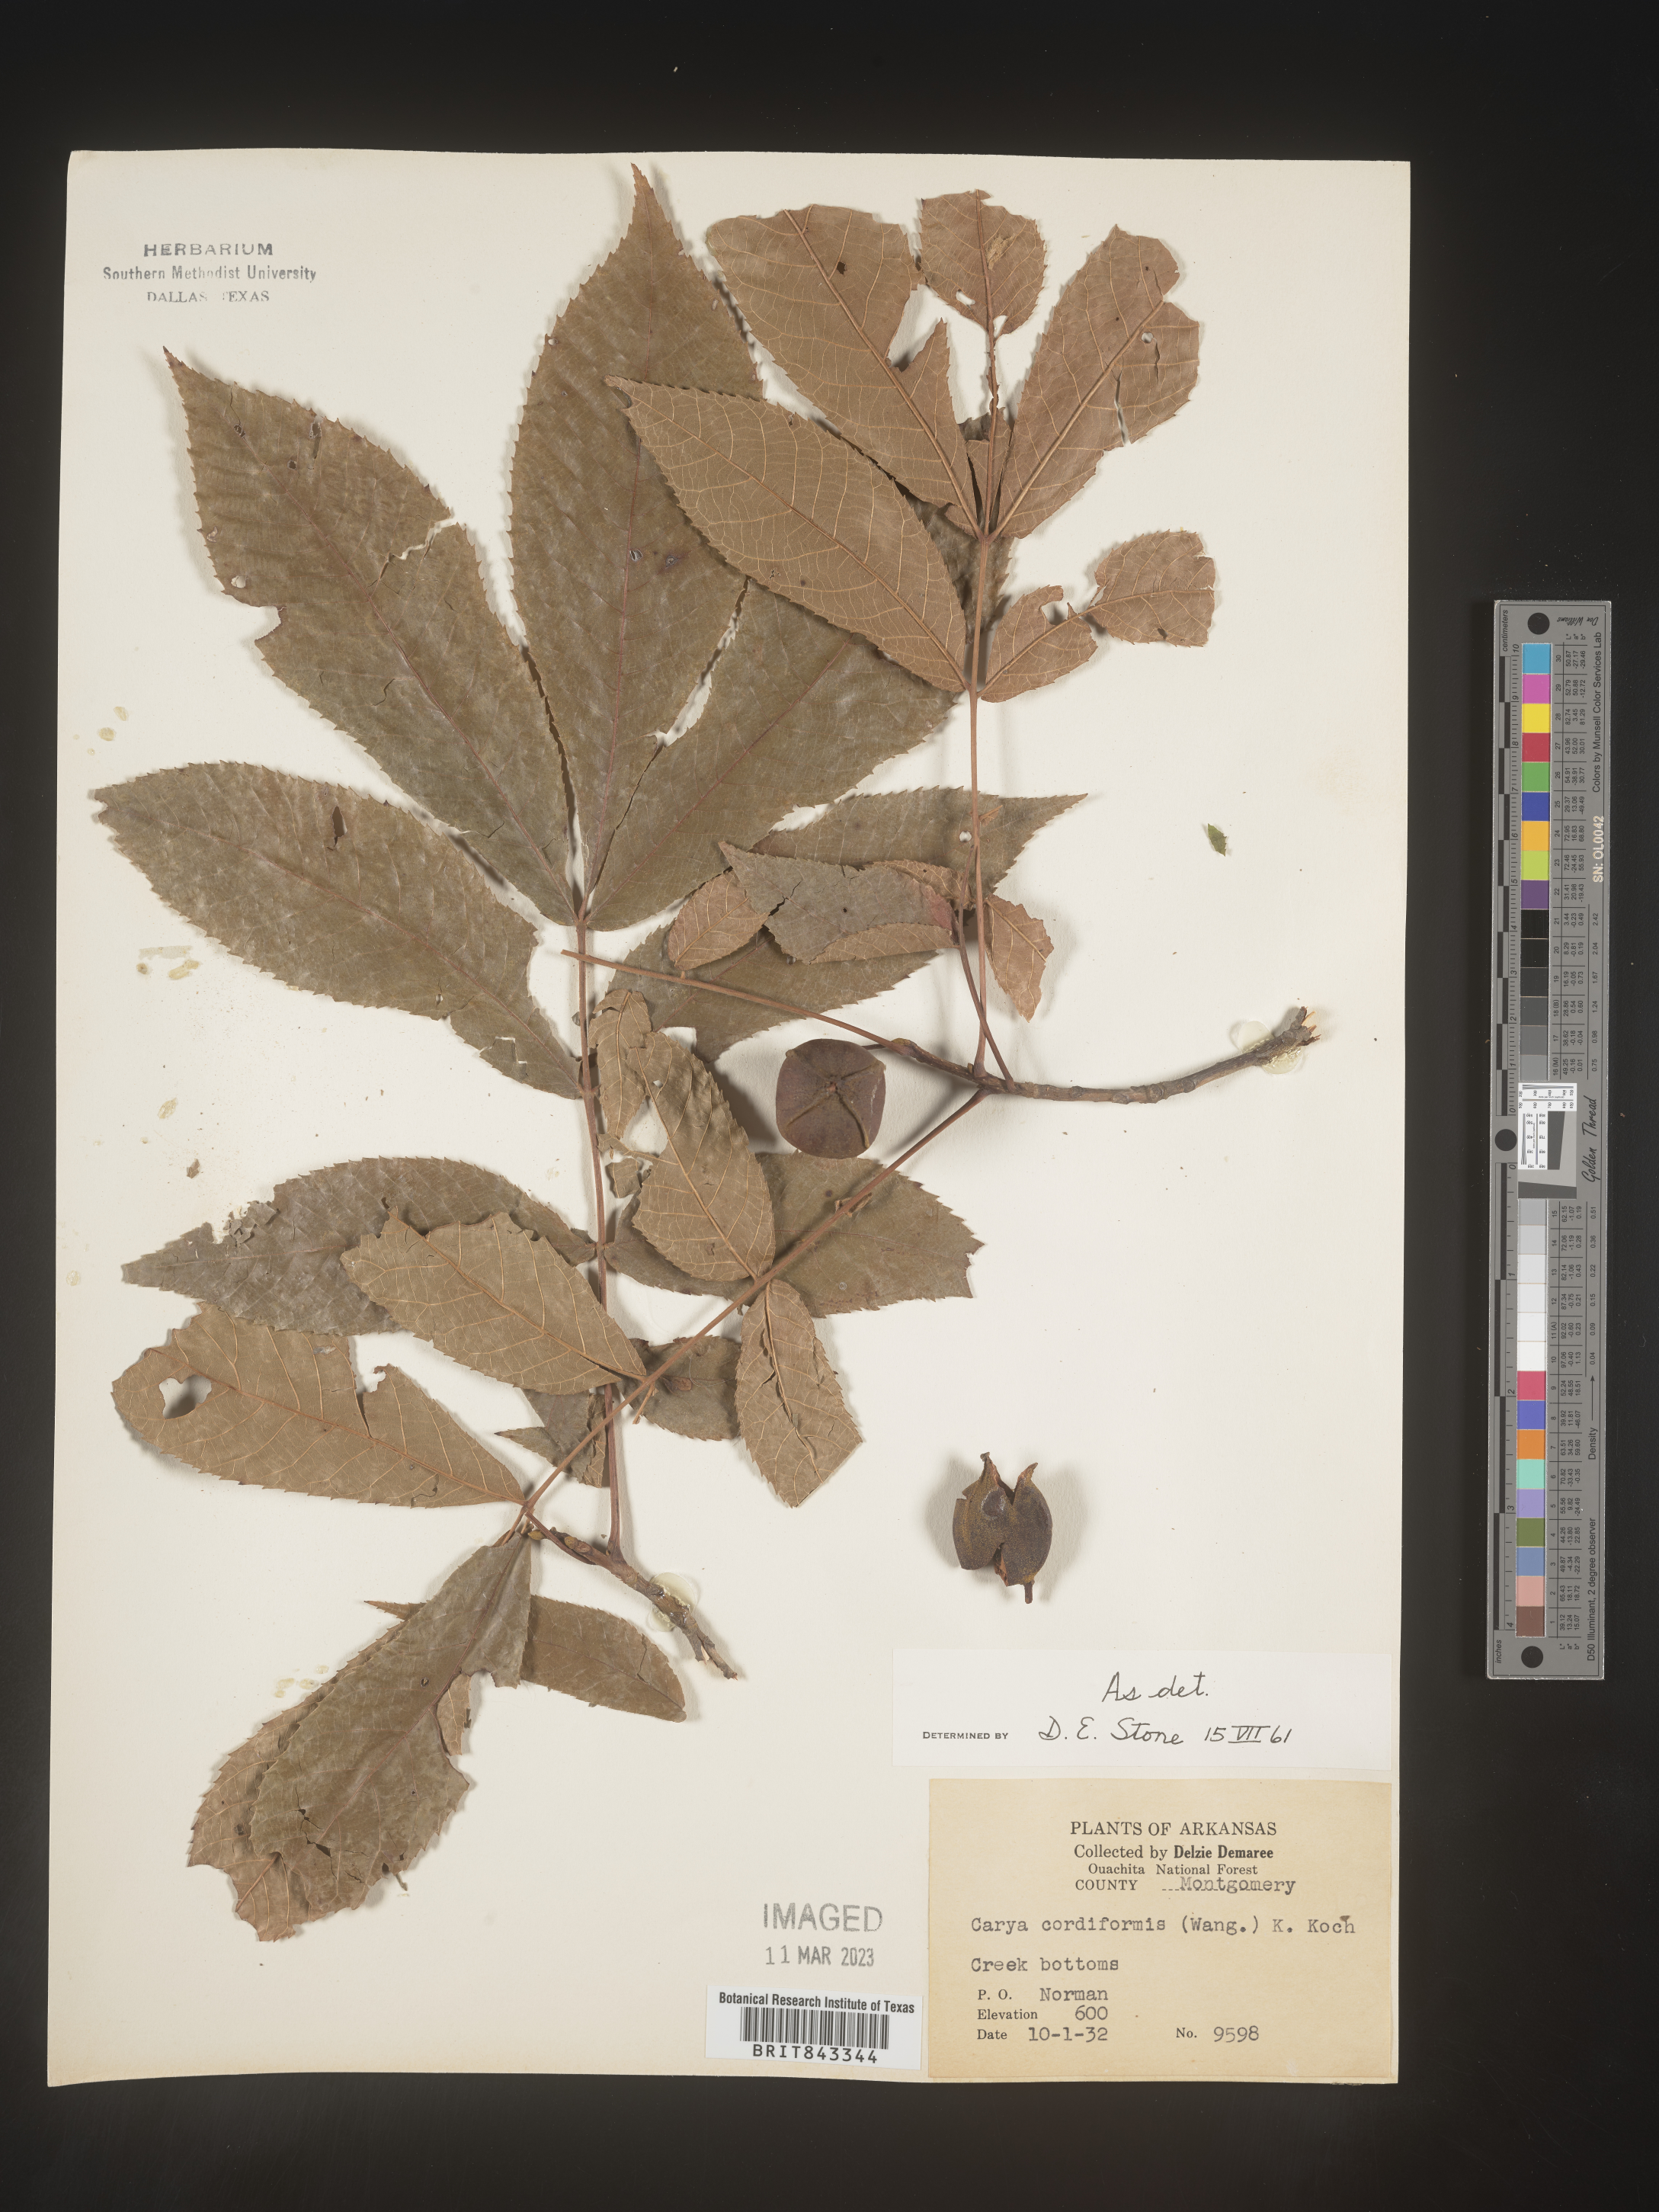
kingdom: Plantae
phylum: Tracheophyta
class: Magnoliopsida
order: Fagales
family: Juglandaceae
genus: Carya
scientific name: Carya cordiformis
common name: Bitternut hickory
